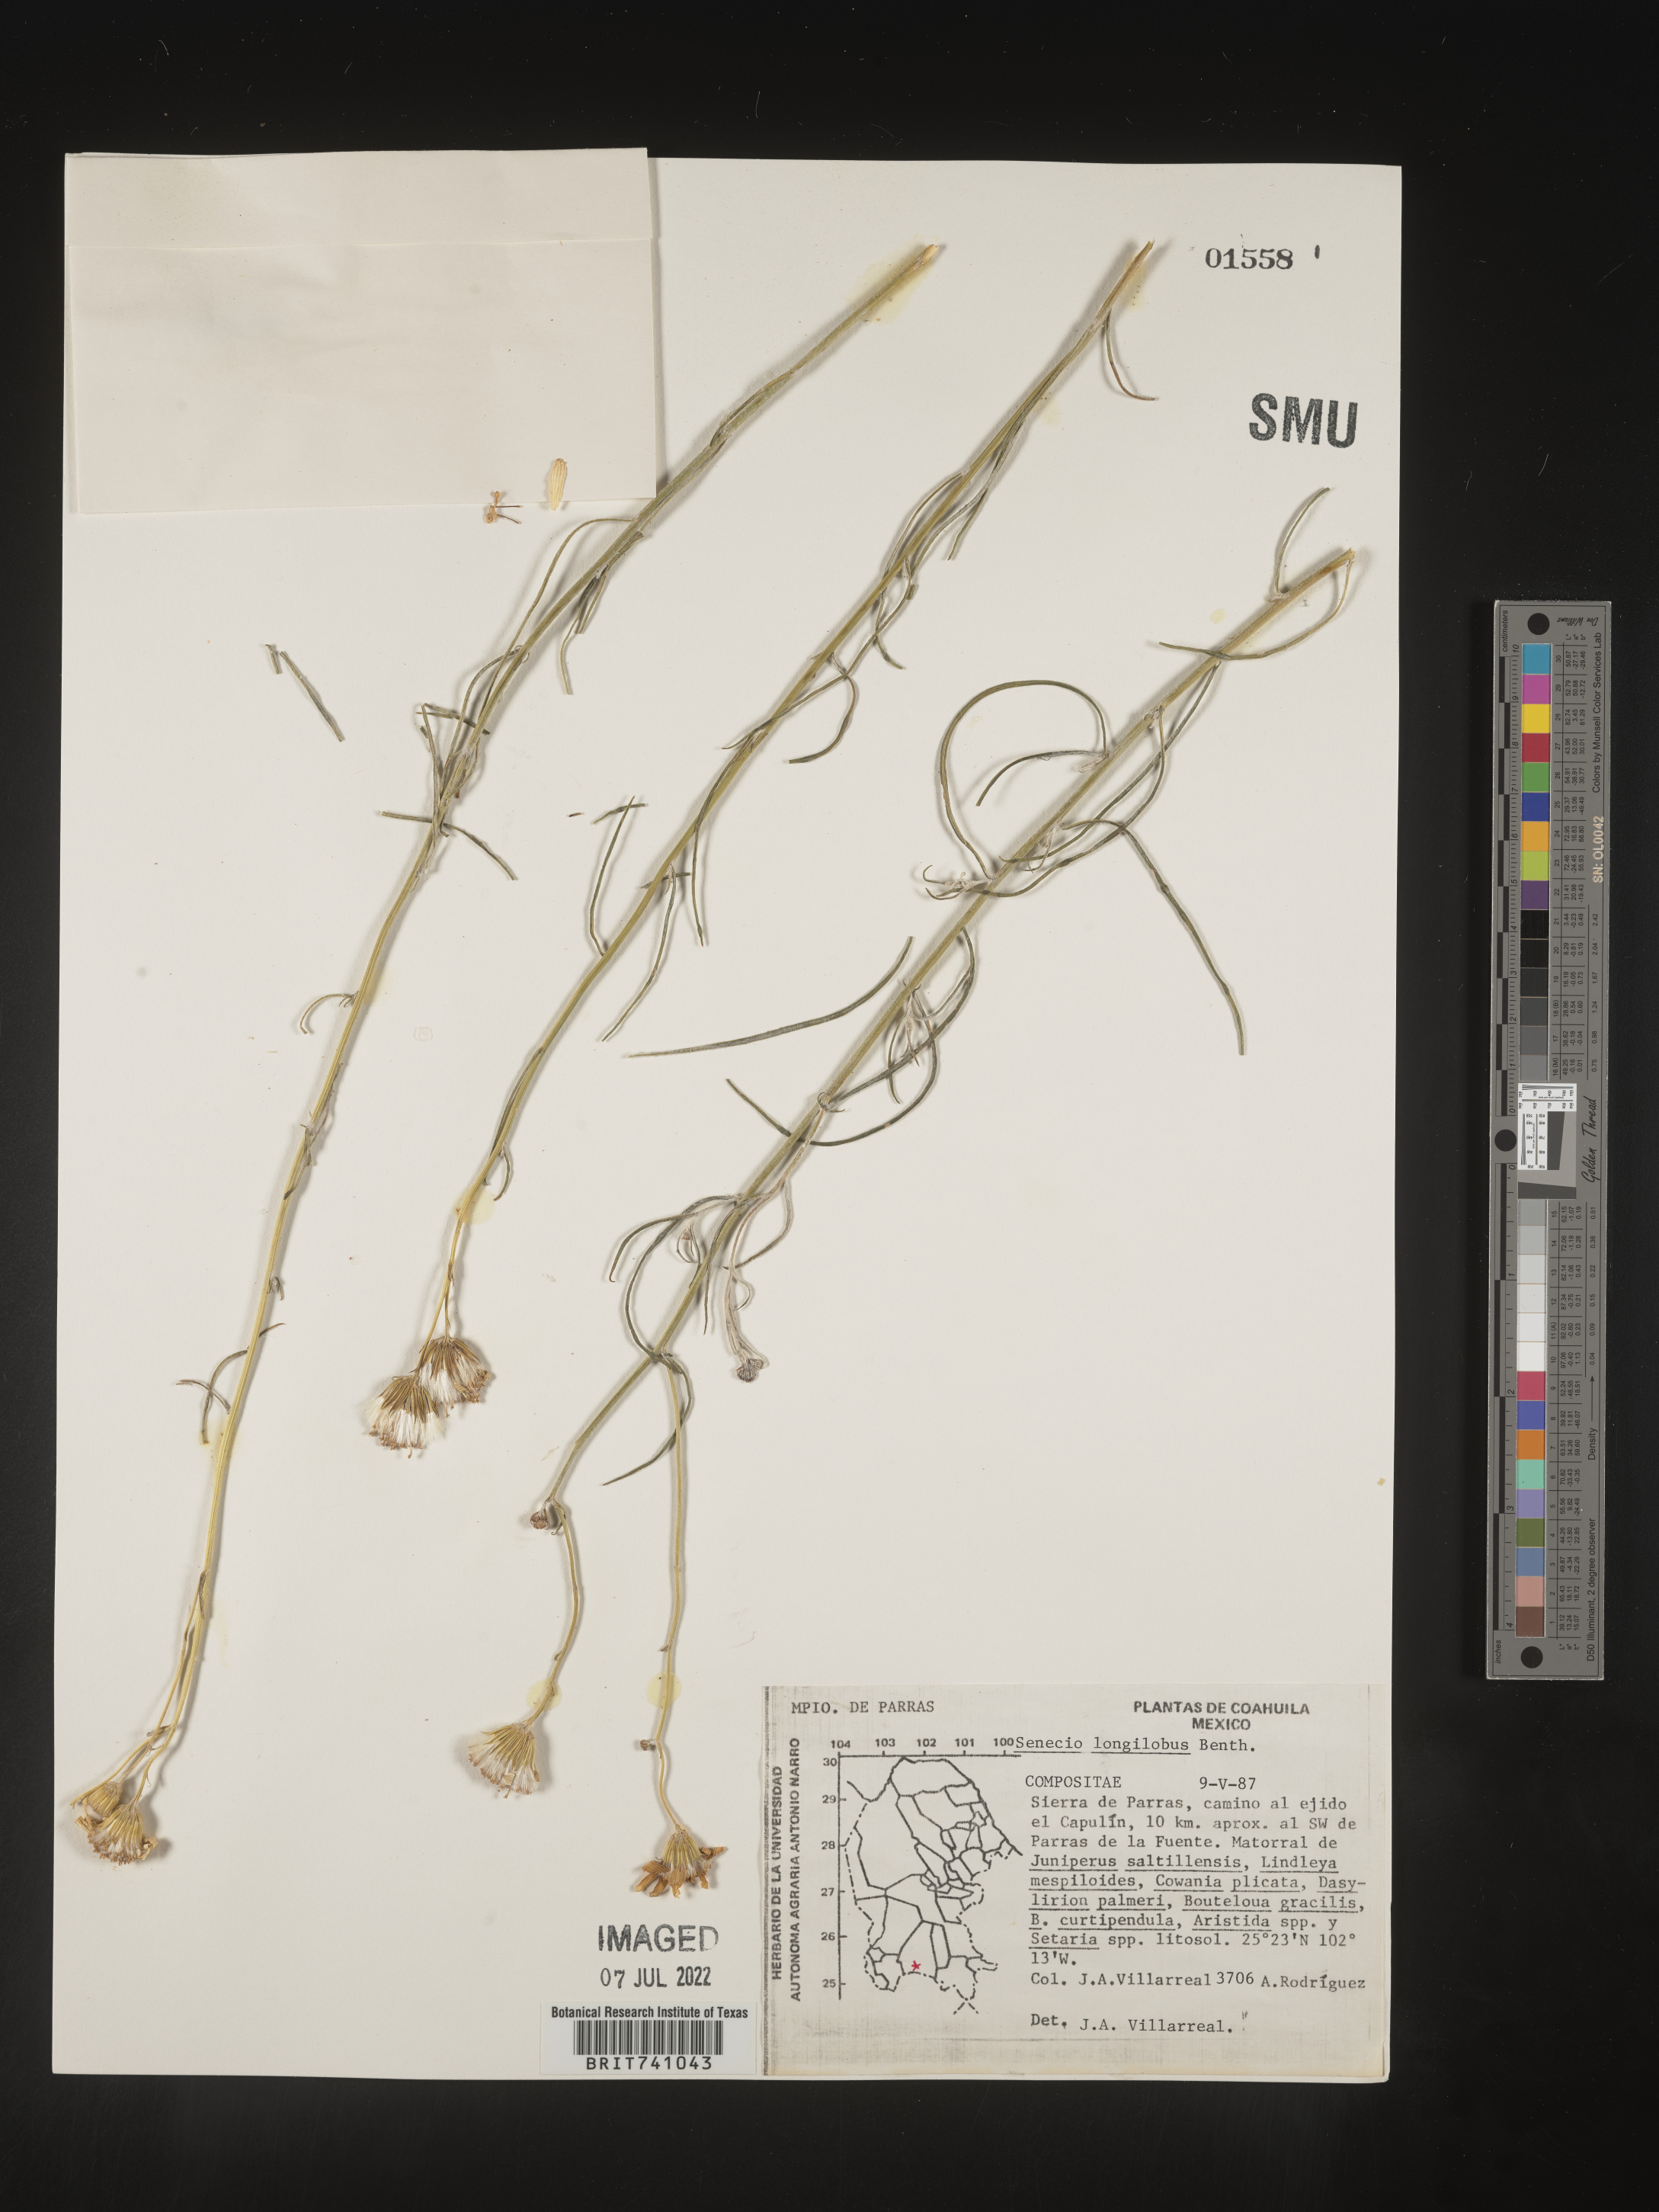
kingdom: Plantae
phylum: Tracheophyta
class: Magnoliopsida
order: Asterales
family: Asteraceae
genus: Senecio
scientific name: Senecio flaccidus
